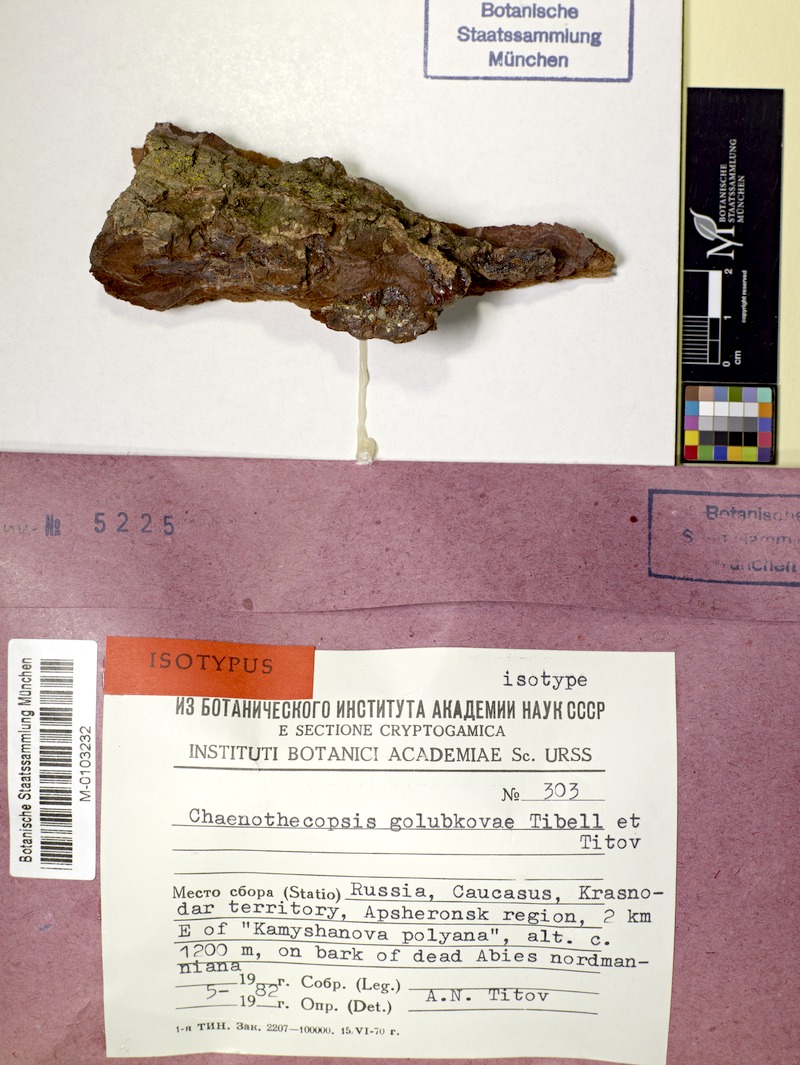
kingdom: Fungi
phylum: Ascomycota
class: Eurotiomycetes
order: Mycocaliciales
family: Mycocaliciaceae
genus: Chaenothecopsis
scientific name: Chaenothecopsis golubkovae
